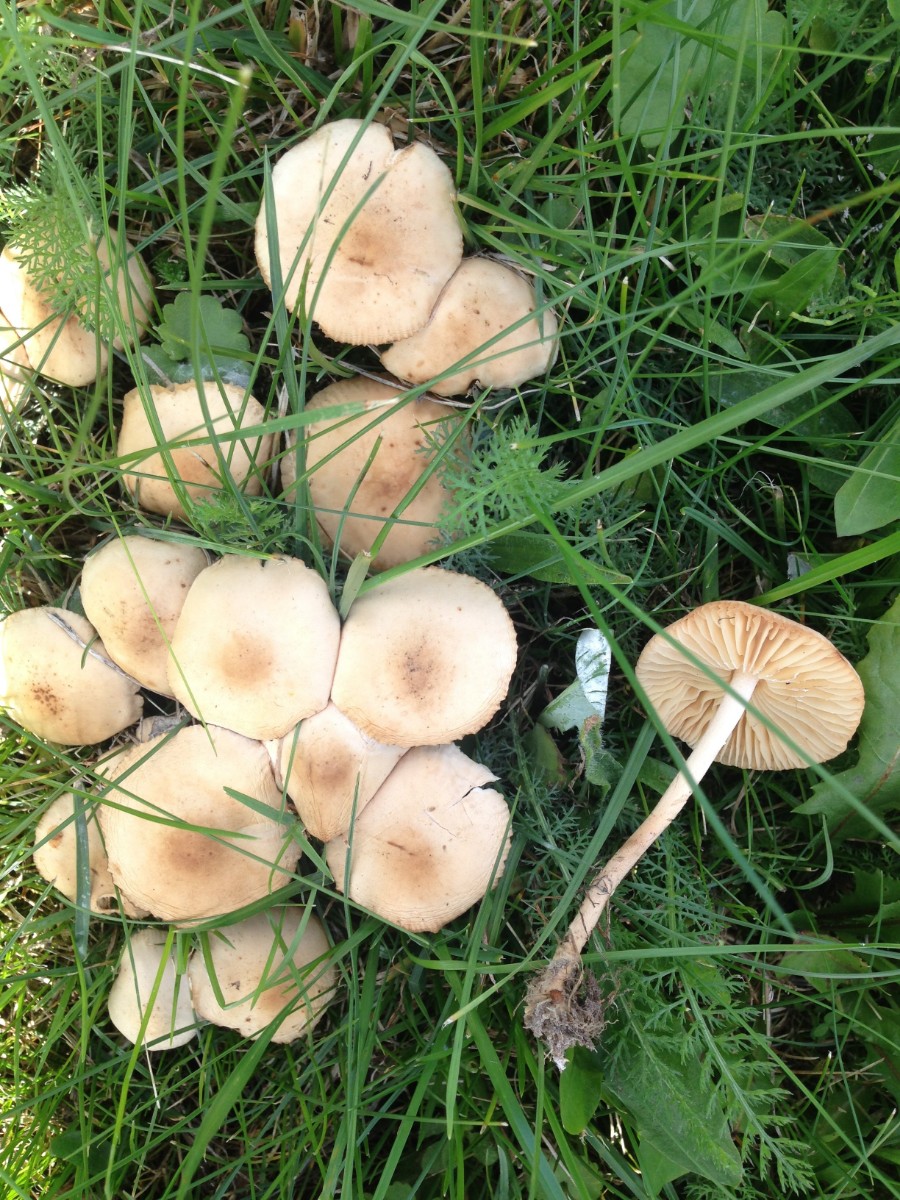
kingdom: Fungi
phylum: Basidiomycota
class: Agaricomycetes
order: Agaricales
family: Marasmiaceae
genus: Marasmius
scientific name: Marasmius oreades
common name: elledans-bruskhat
